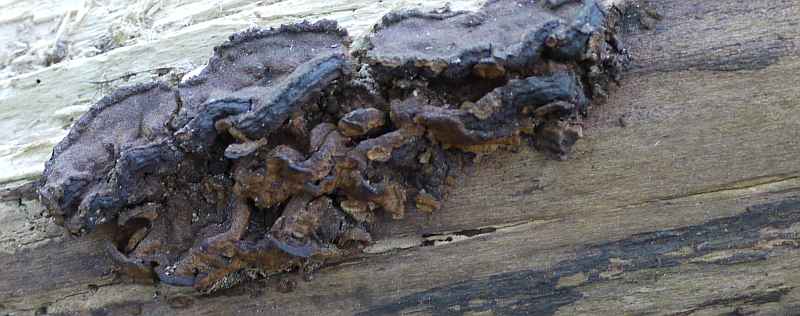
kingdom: Fungi
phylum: Basidiomycota
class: Agaricomycetes
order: Hymenochaetales
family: Hymenochaetaceae
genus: Phellinopsis
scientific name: Phellinopsis conchata
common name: pile-ildporesvamp
